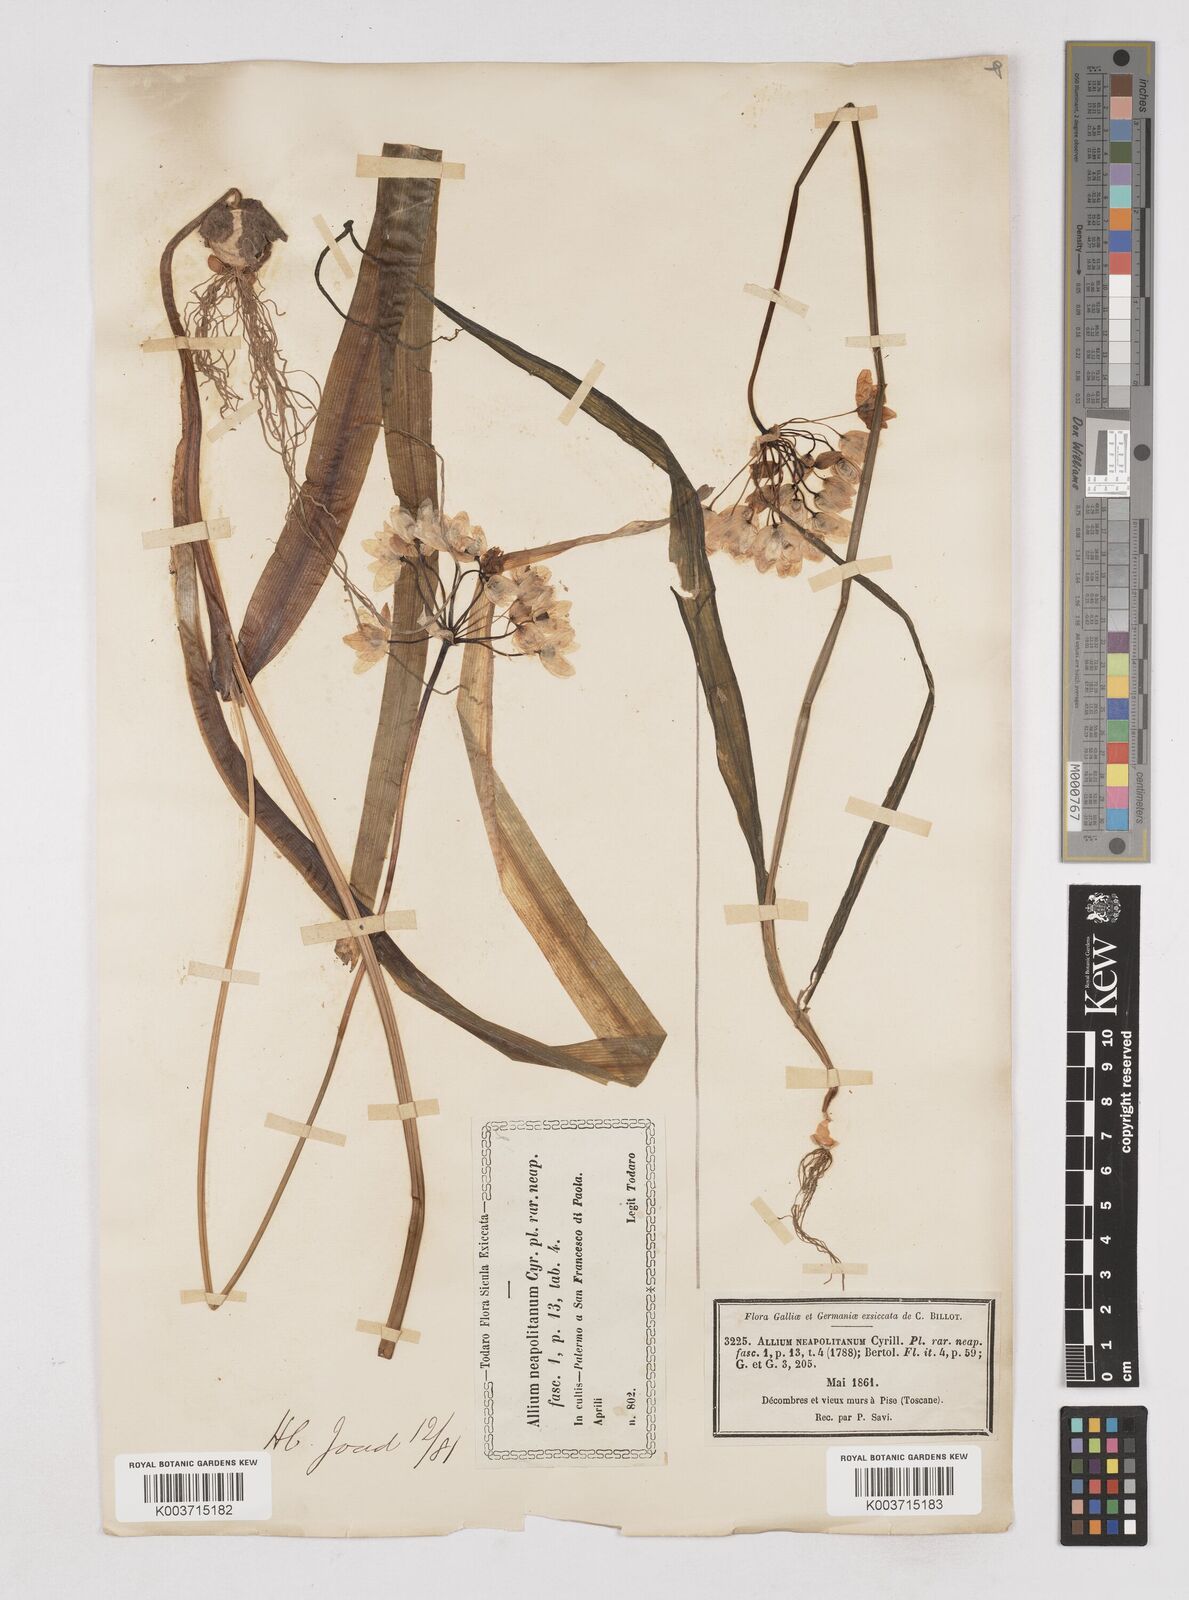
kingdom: Plantae
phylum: Tracheophyta
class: Liliopsida
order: Asparagales
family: Amaryllidaceae
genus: Allium
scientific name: Allium neapolitanum
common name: Neapolitan garlic
